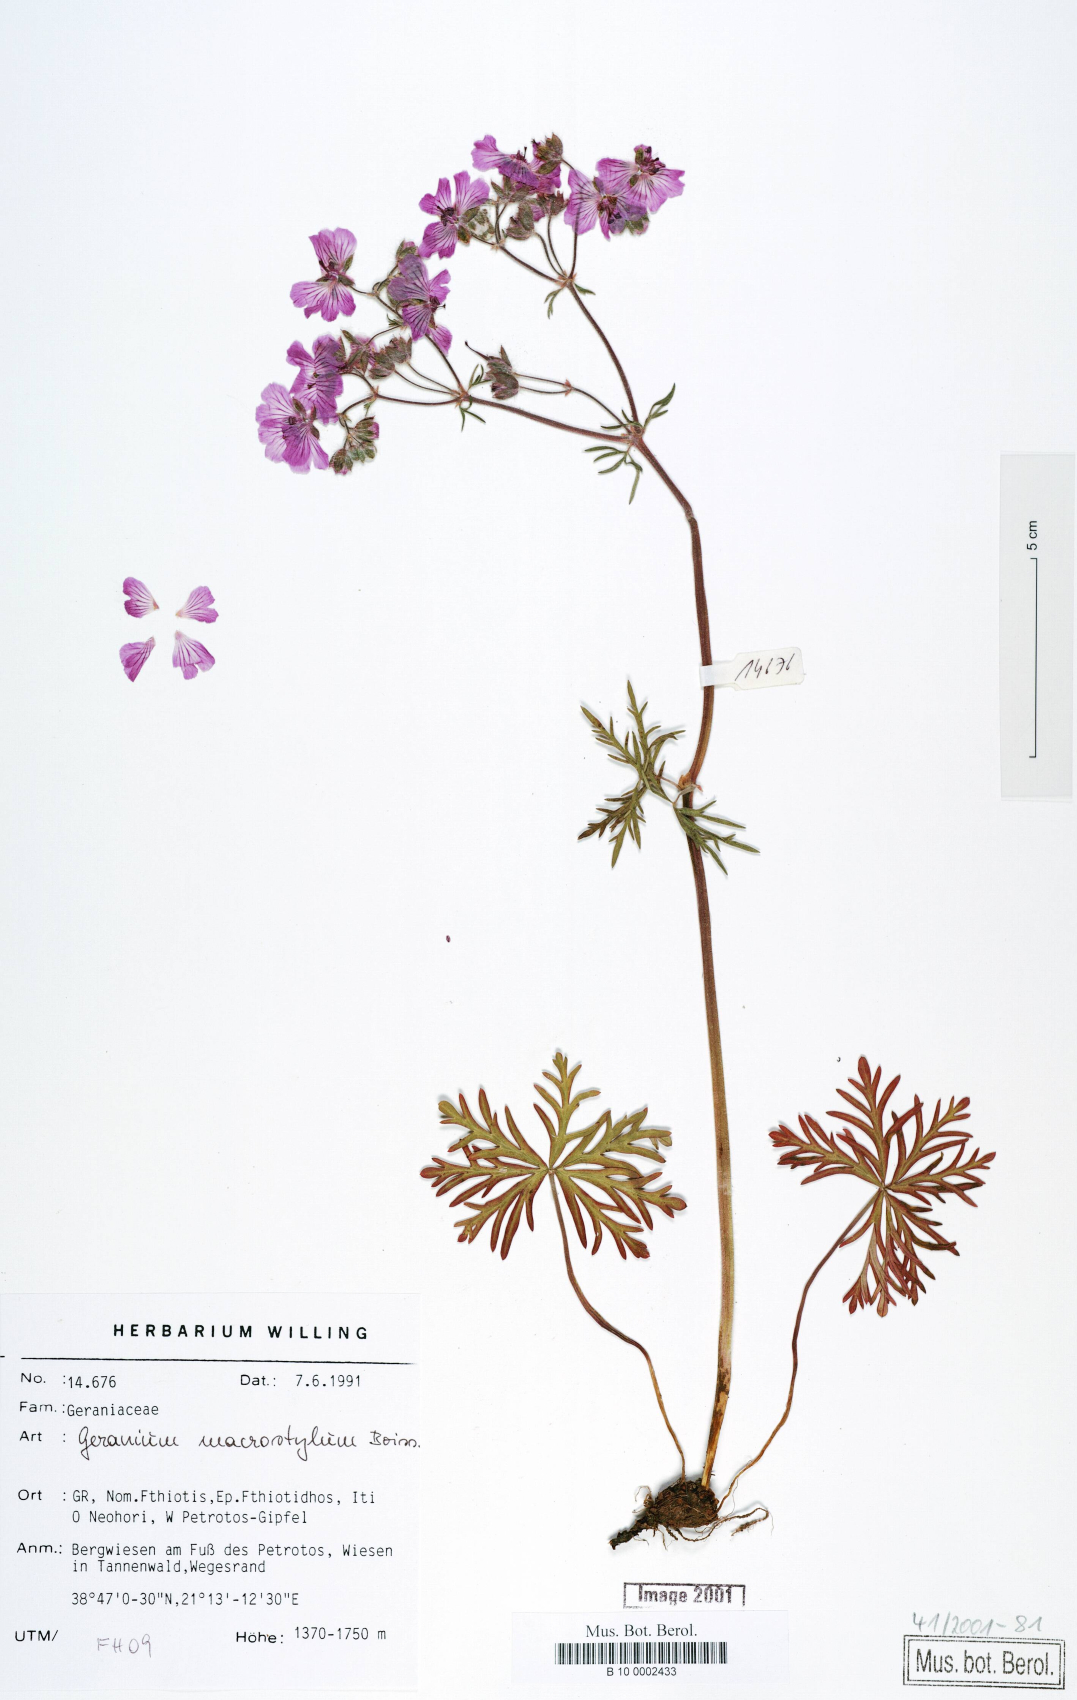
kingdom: Plantae
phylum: Tracheophyta
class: Magnoliopsida
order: Geraniales
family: Geraniaceae
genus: Geranium
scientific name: Geranium macrostylum
